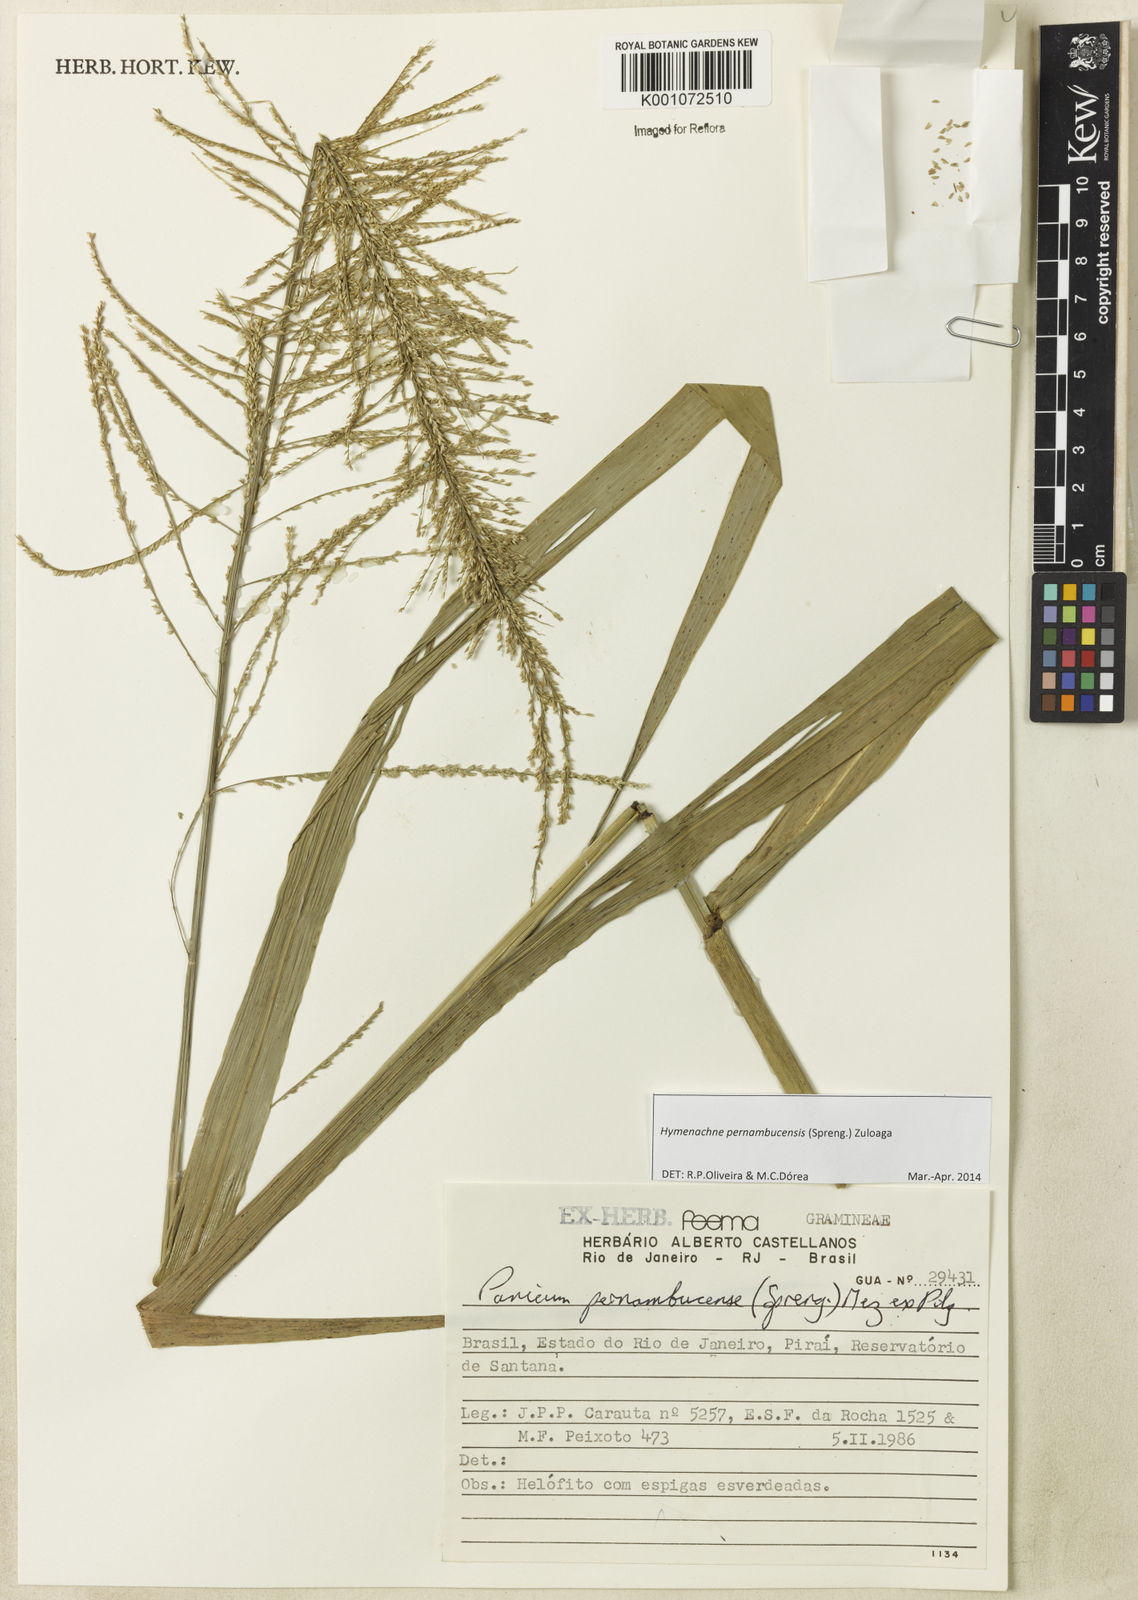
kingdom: Plantae
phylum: Tracheophyta
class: Liliopsida
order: Poales
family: Poaceae
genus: Hymenachne
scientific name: Hymenachne pernambucensis
